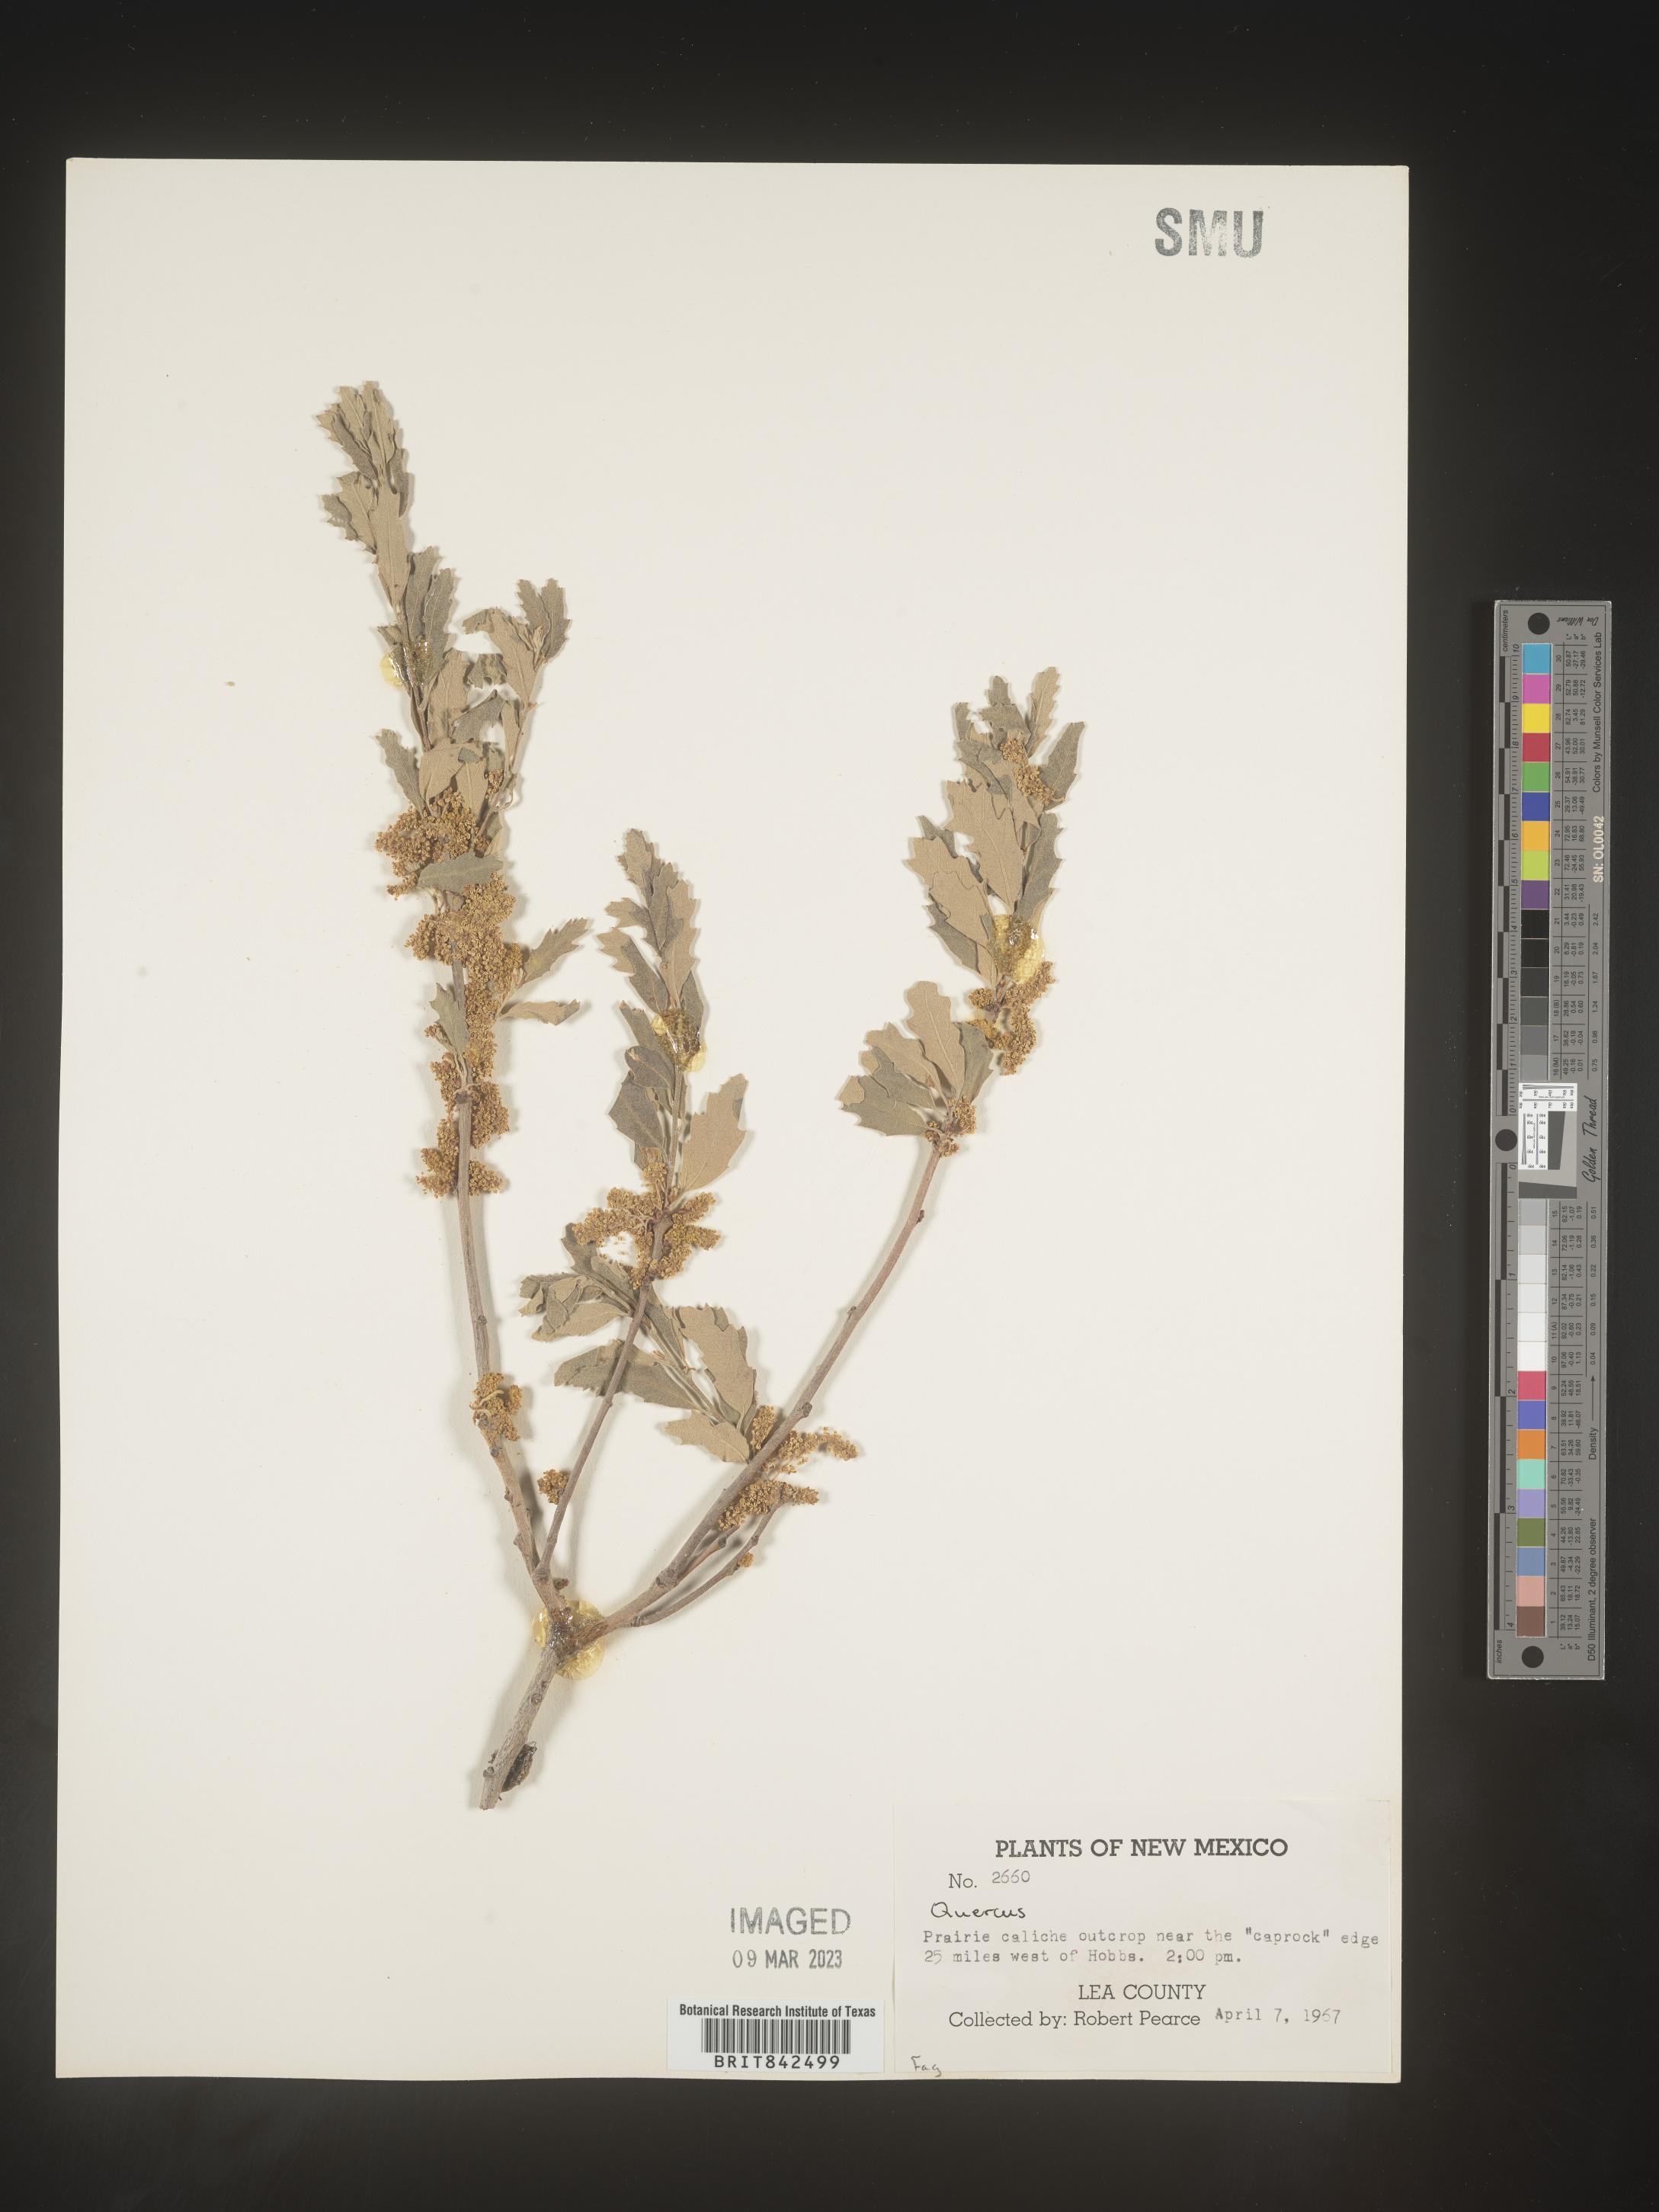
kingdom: Plantae
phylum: Tracheophyta
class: Magnoliopsida
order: Fagales
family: Fagaceae
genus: Quercus
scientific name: Quercus
